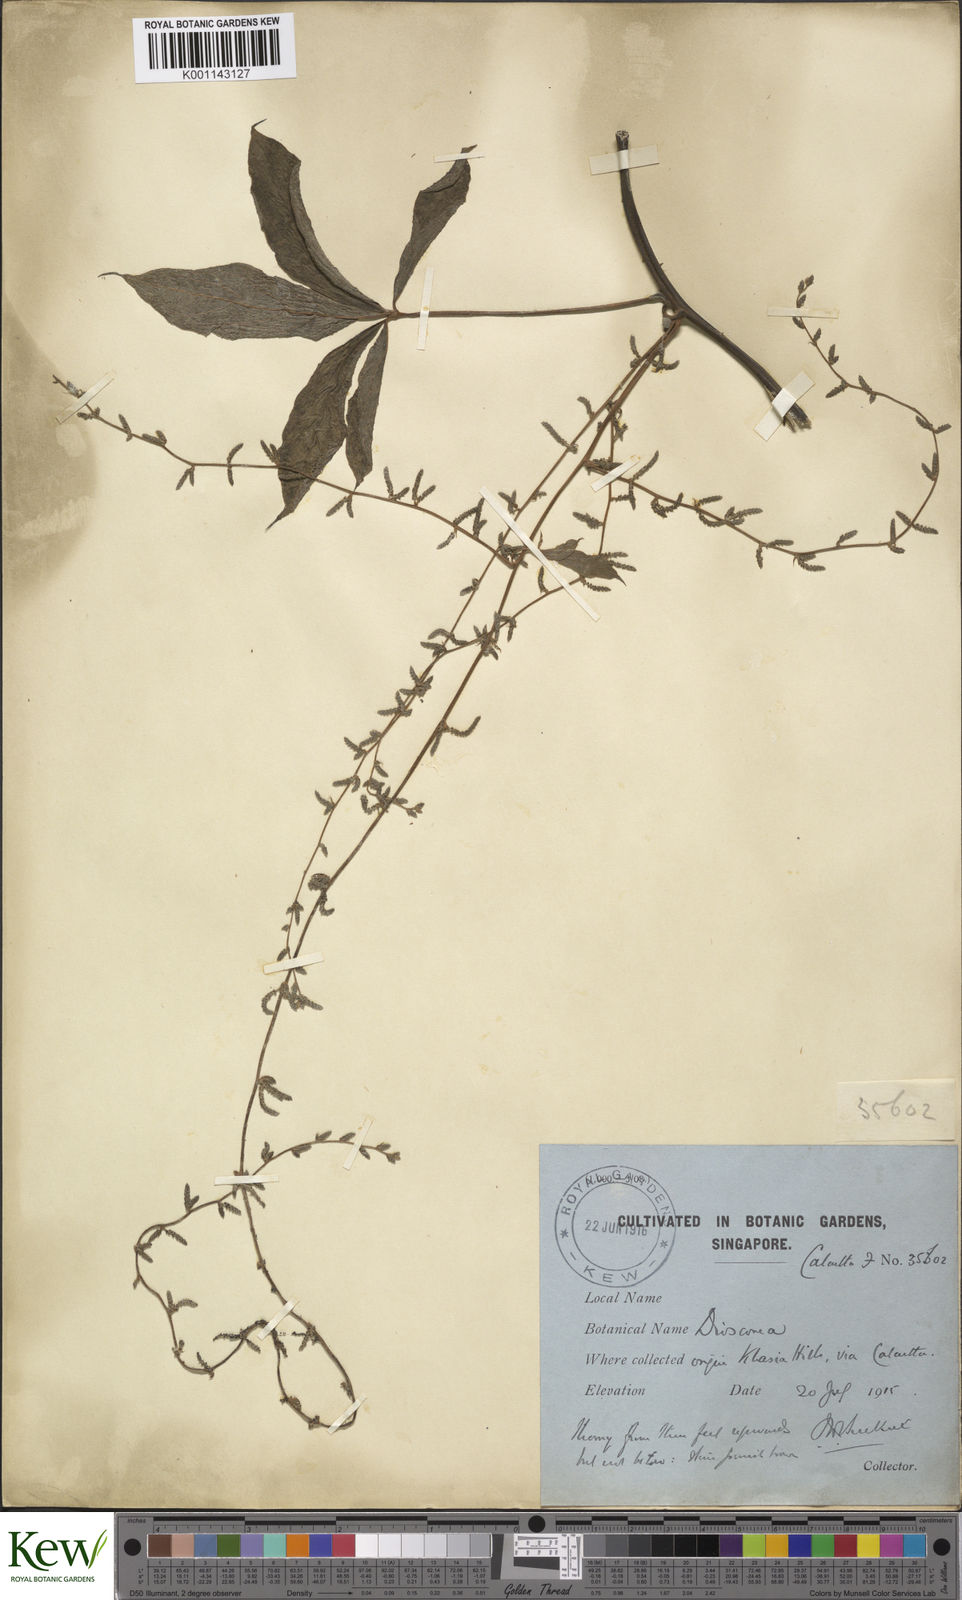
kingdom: Plantae
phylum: Tracheophyta
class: Liliopsida
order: Dioscoreales
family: Dioscoreaceae
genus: Dioscorea
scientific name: Dioscorea pentaphylla
